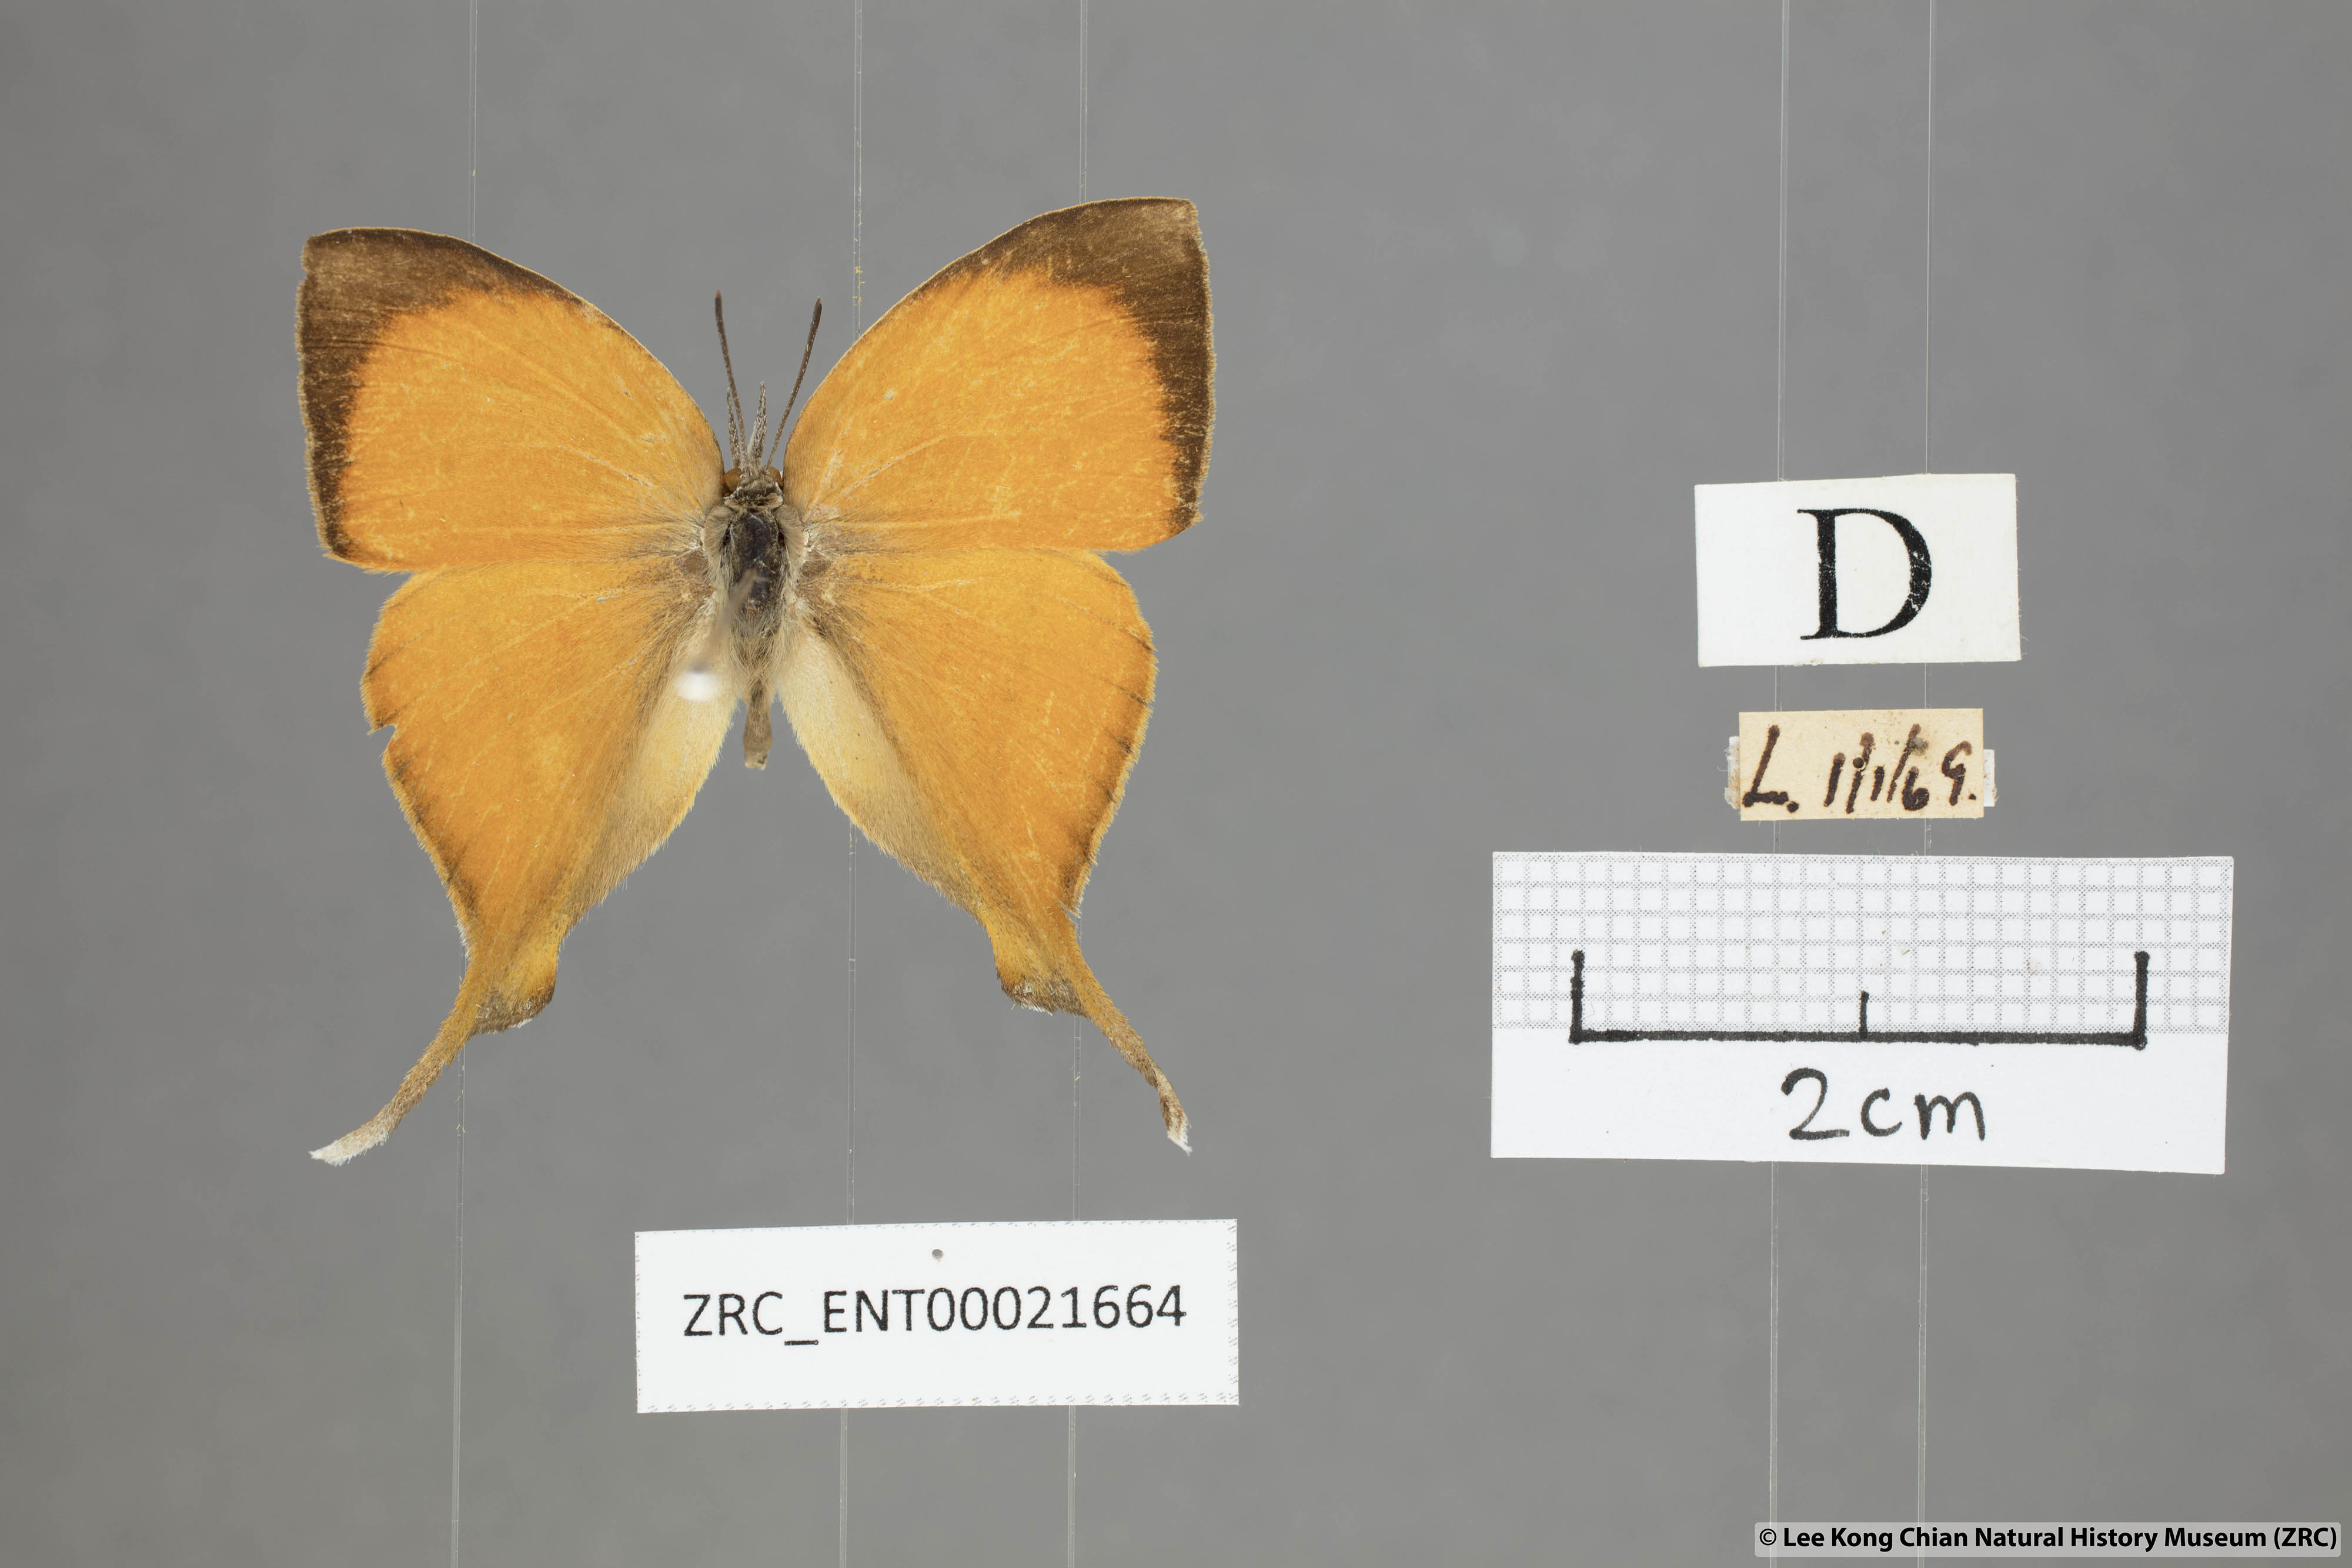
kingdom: Animalia
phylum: Arthropoda
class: Insecta
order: Lepidoptera
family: Lycaenidae
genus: Loxura
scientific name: Loxura atymnus
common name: Common yamfly
